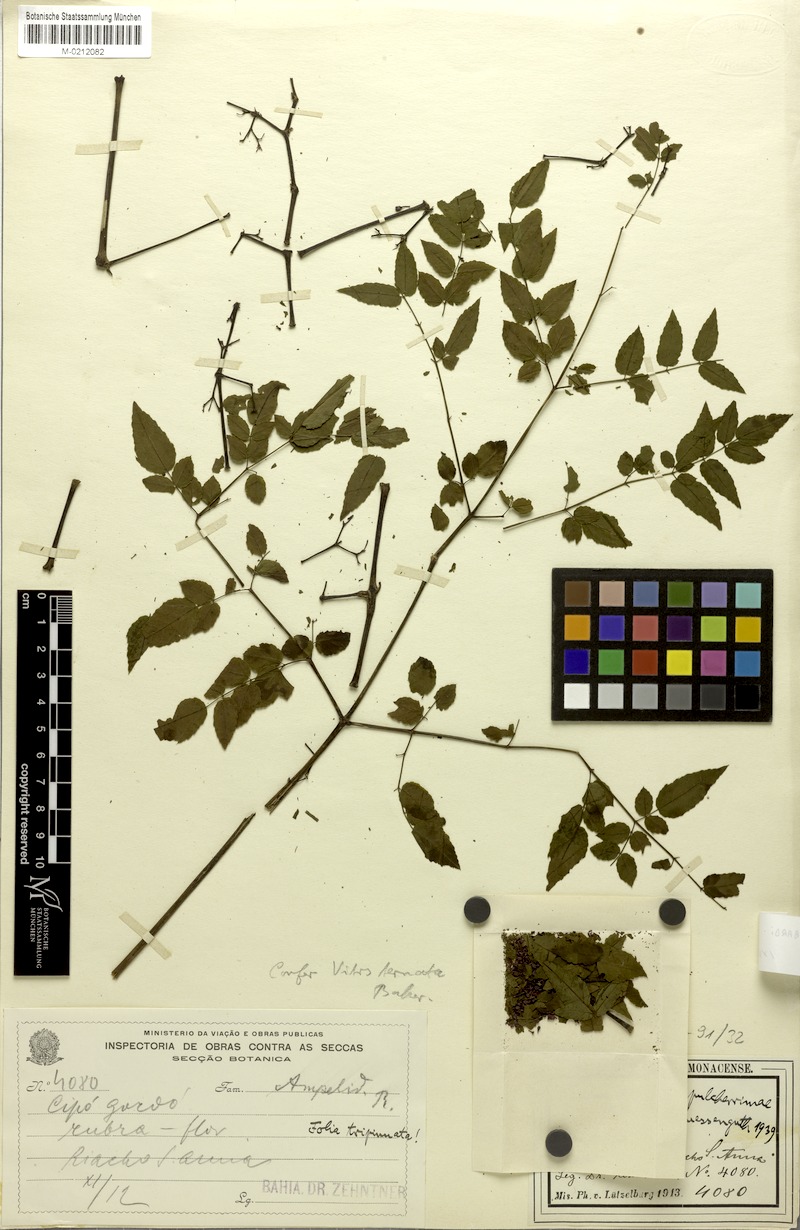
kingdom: Plantae
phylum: Tracheophyta
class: Magnoliopsida
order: Vitales
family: Vitaceae
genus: Cissus
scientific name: Cissus bahiensis
